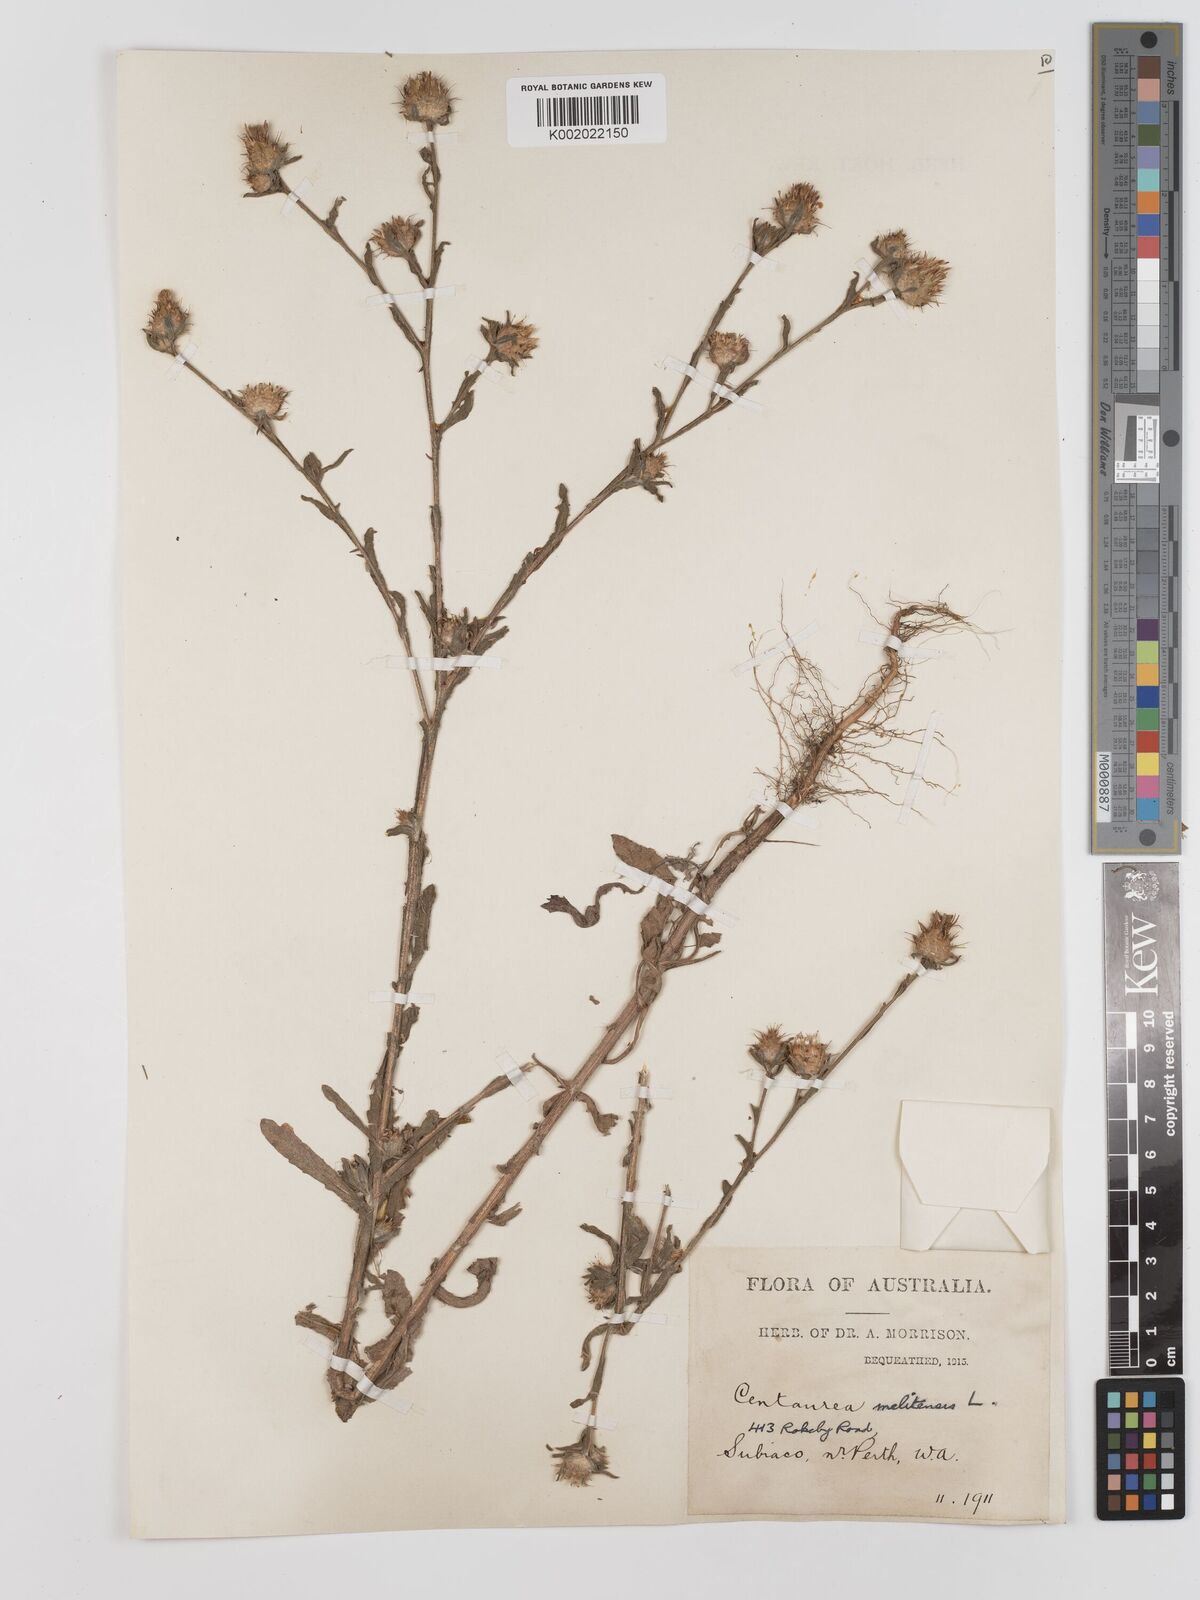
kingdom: Plantae
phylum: Tracheophyta
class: Magnoliopsida
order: Asterales
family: Asteraceae
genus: Centaurea
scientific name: Centaurea melitensis
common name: Maltese star-thistle
